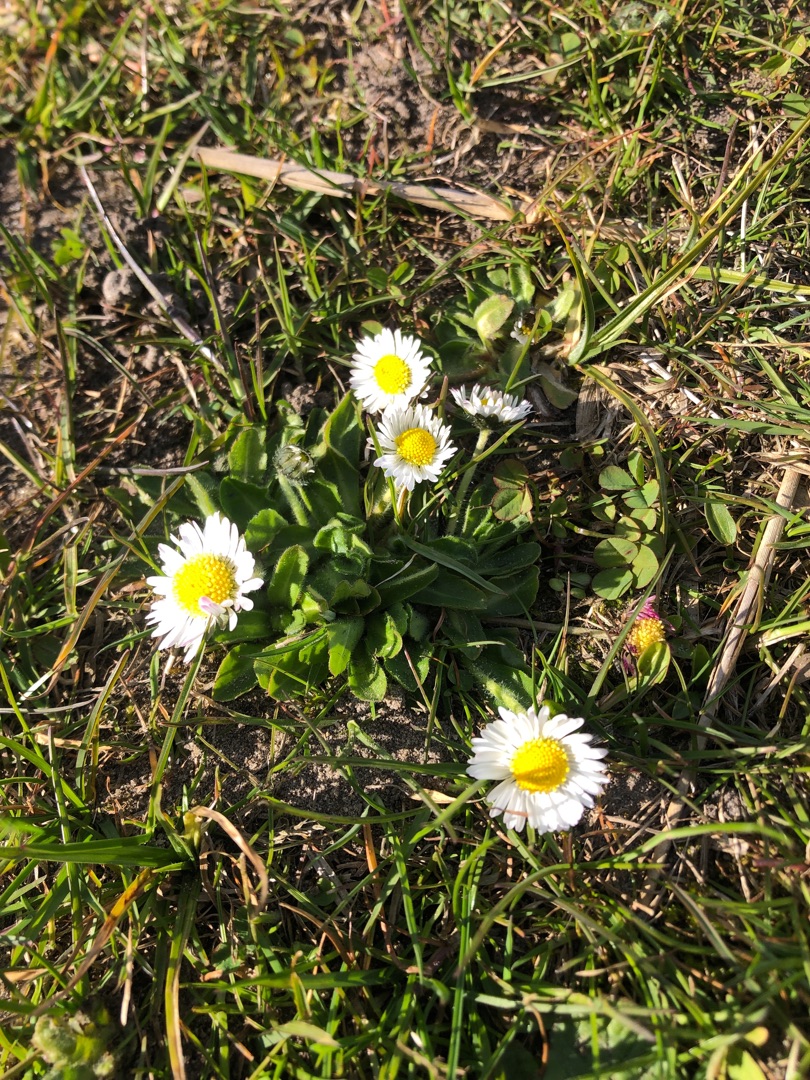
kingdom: Plantae
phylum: Tracheophyta
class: Magnoliopsida
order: Asterales
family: Asteraceae
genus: Bellis
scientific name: Bellis perennis
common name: Tusindfryd
